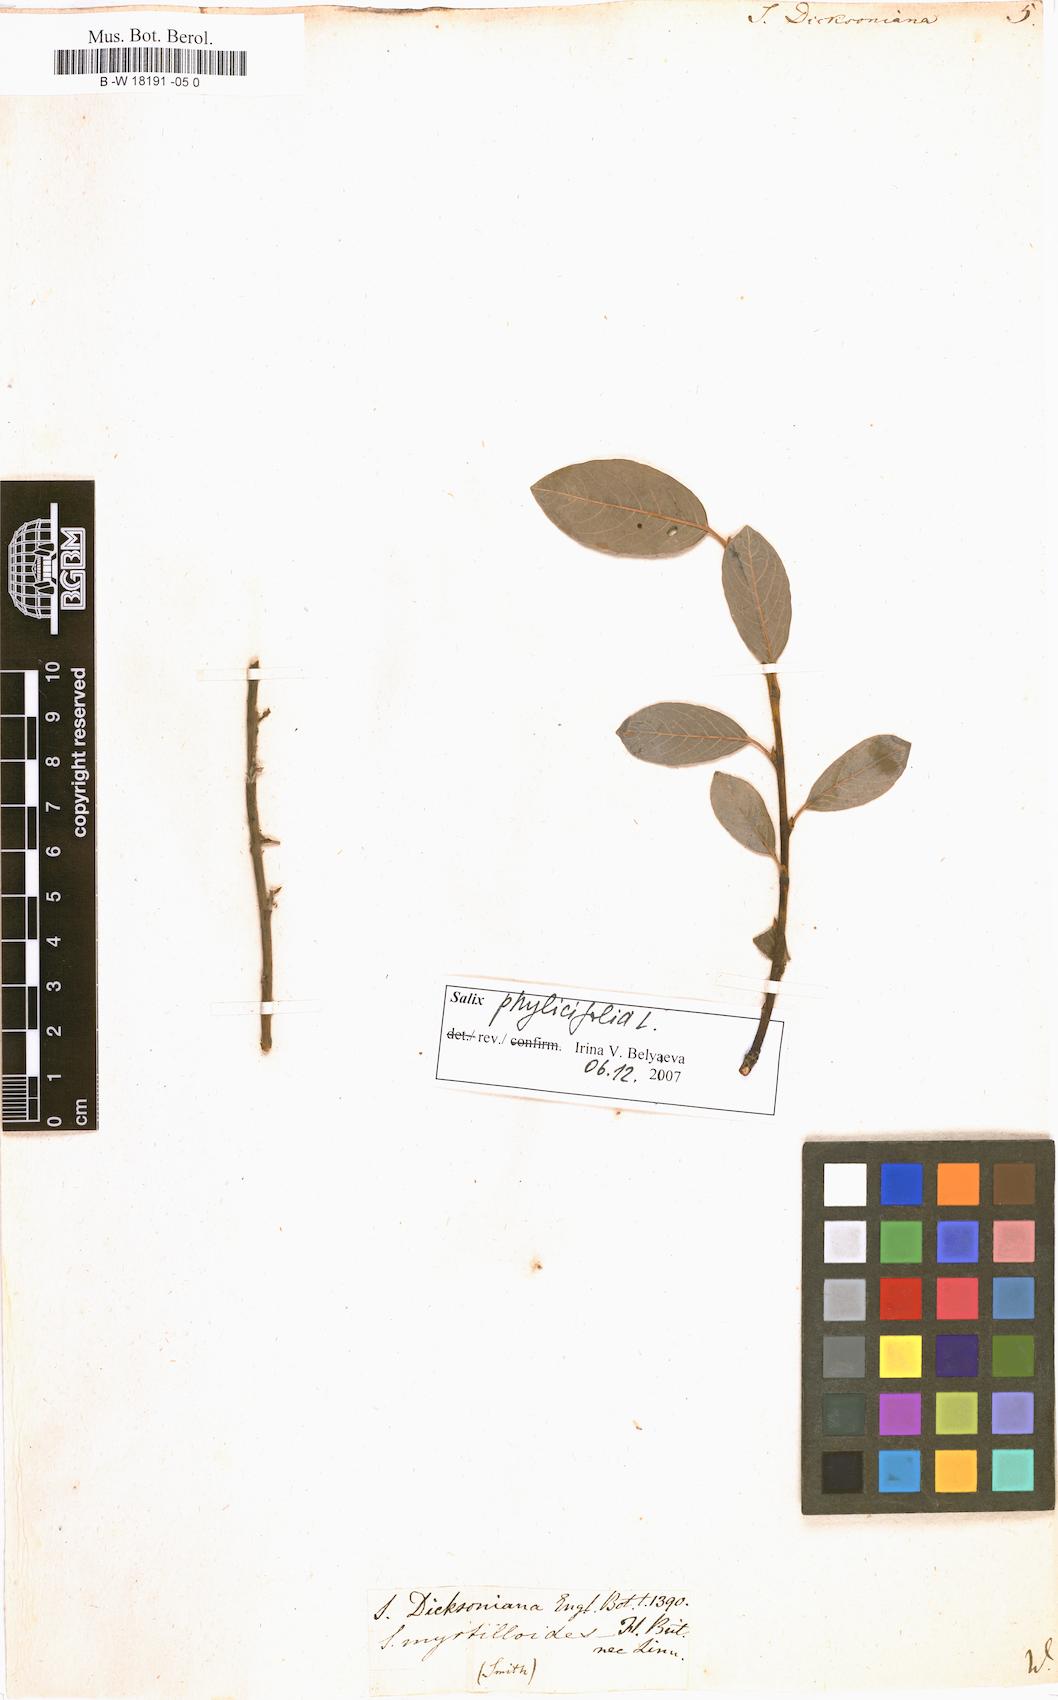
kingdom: Plantae
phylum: Tracheophyta
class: Magnoliopsida
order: Malpighiales
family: Salicaceae
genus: Salix
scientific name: Salix phylicifolia
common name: Tea-leaved willow
